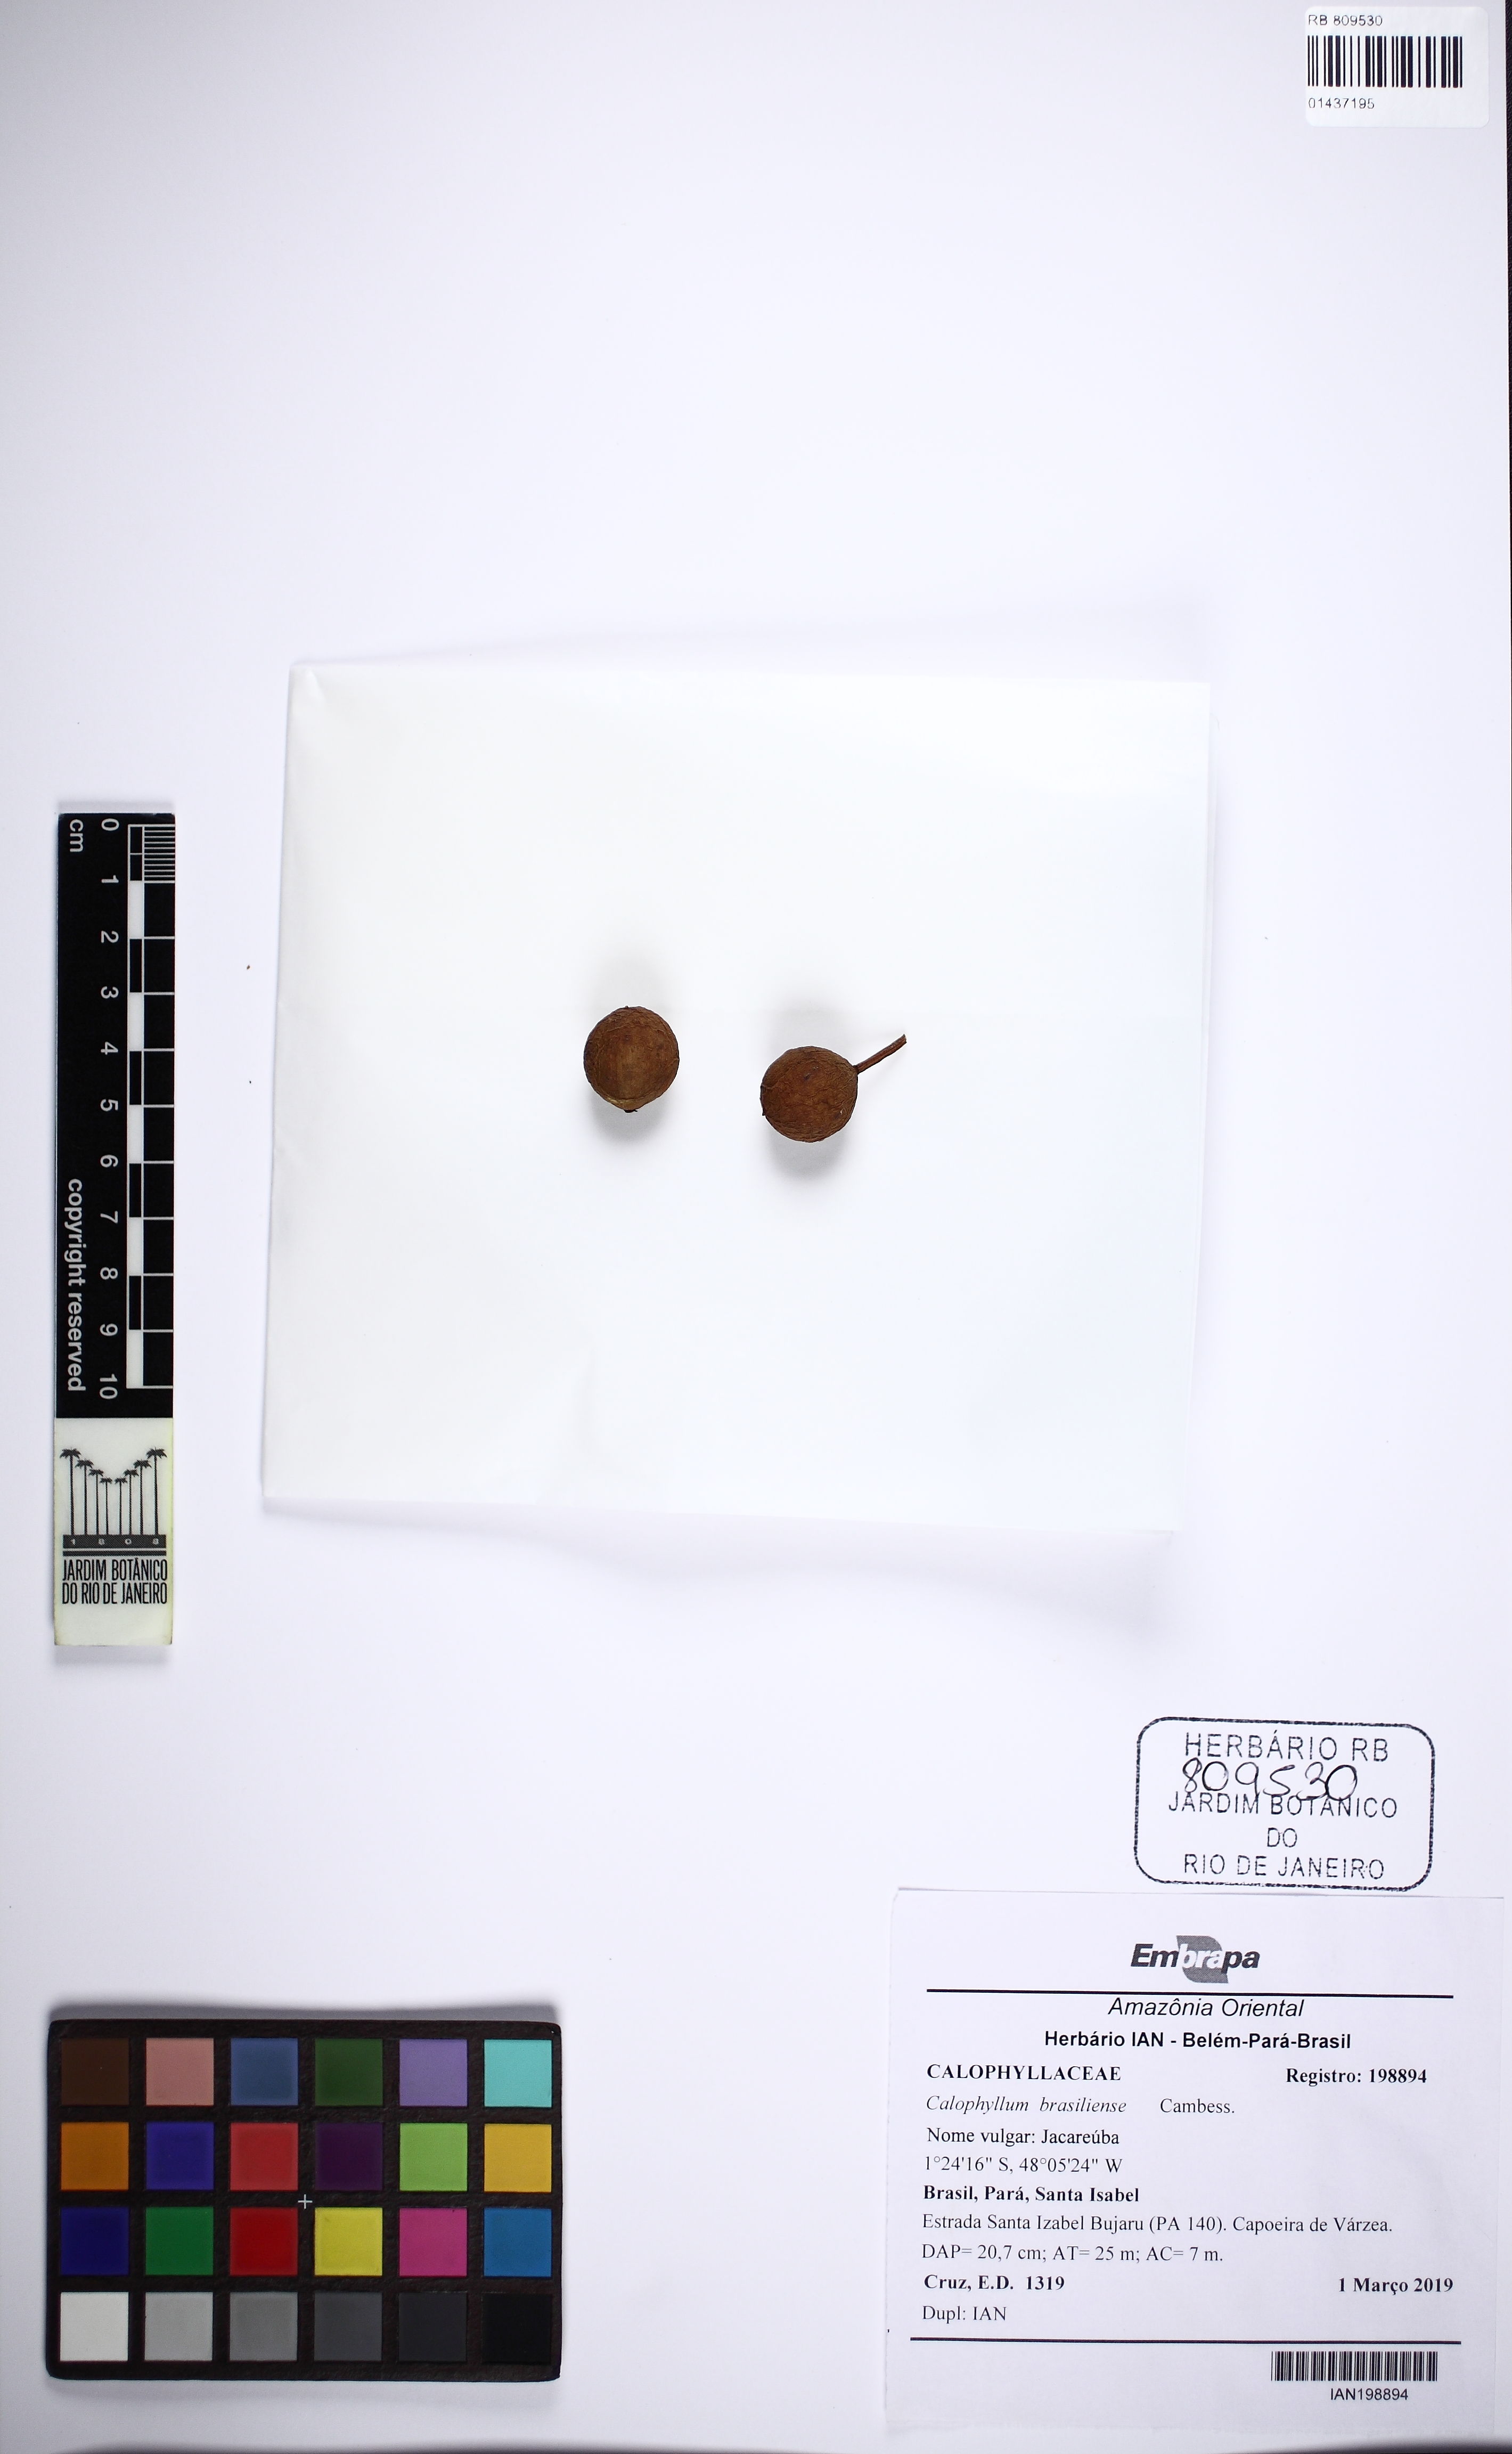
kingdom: Plantae
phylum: Tracheophyta
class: Magnoliopsida
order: Malpighiales
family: Calophyllaceae
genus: Calophyllum
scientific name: Calophyllum brasiliense
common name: Santa maria
